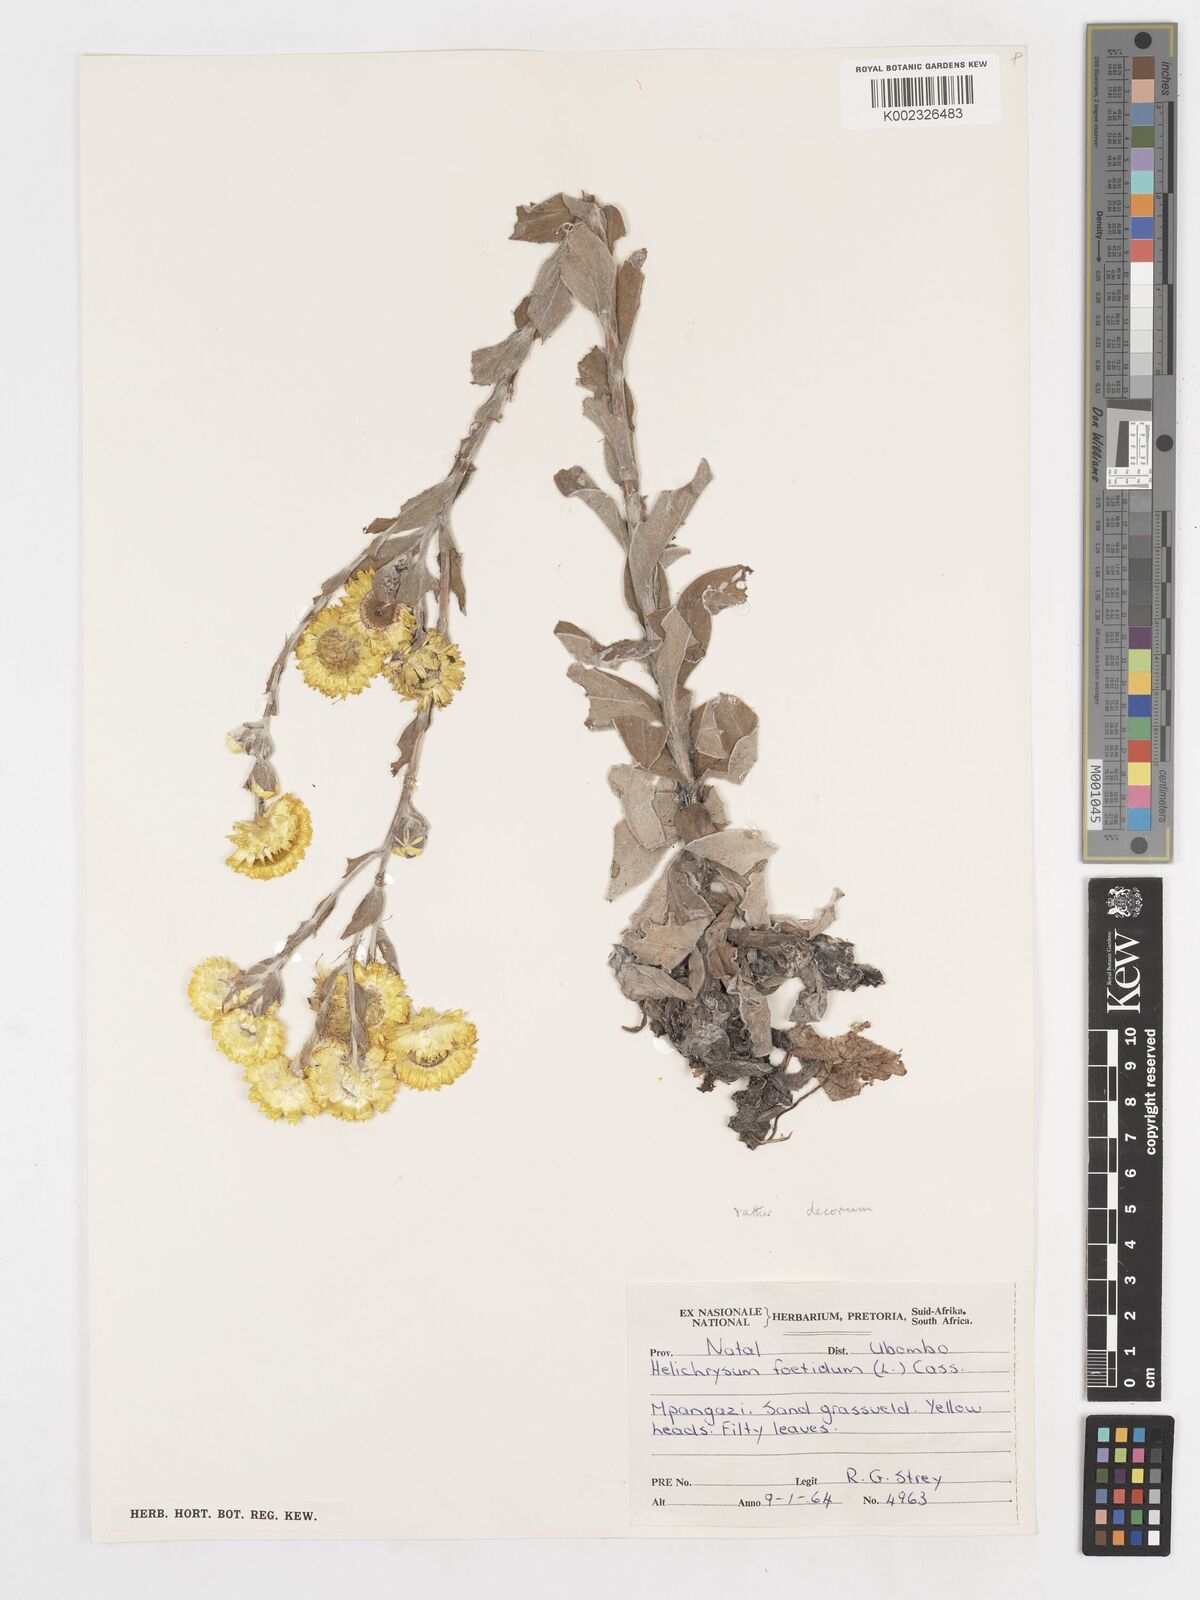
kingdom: Plantae
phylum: Tracheophyta
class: Magnoliopsida
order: Asterales
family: Asteraceae
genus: Helichrysum
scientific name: Helichrysum decorum
